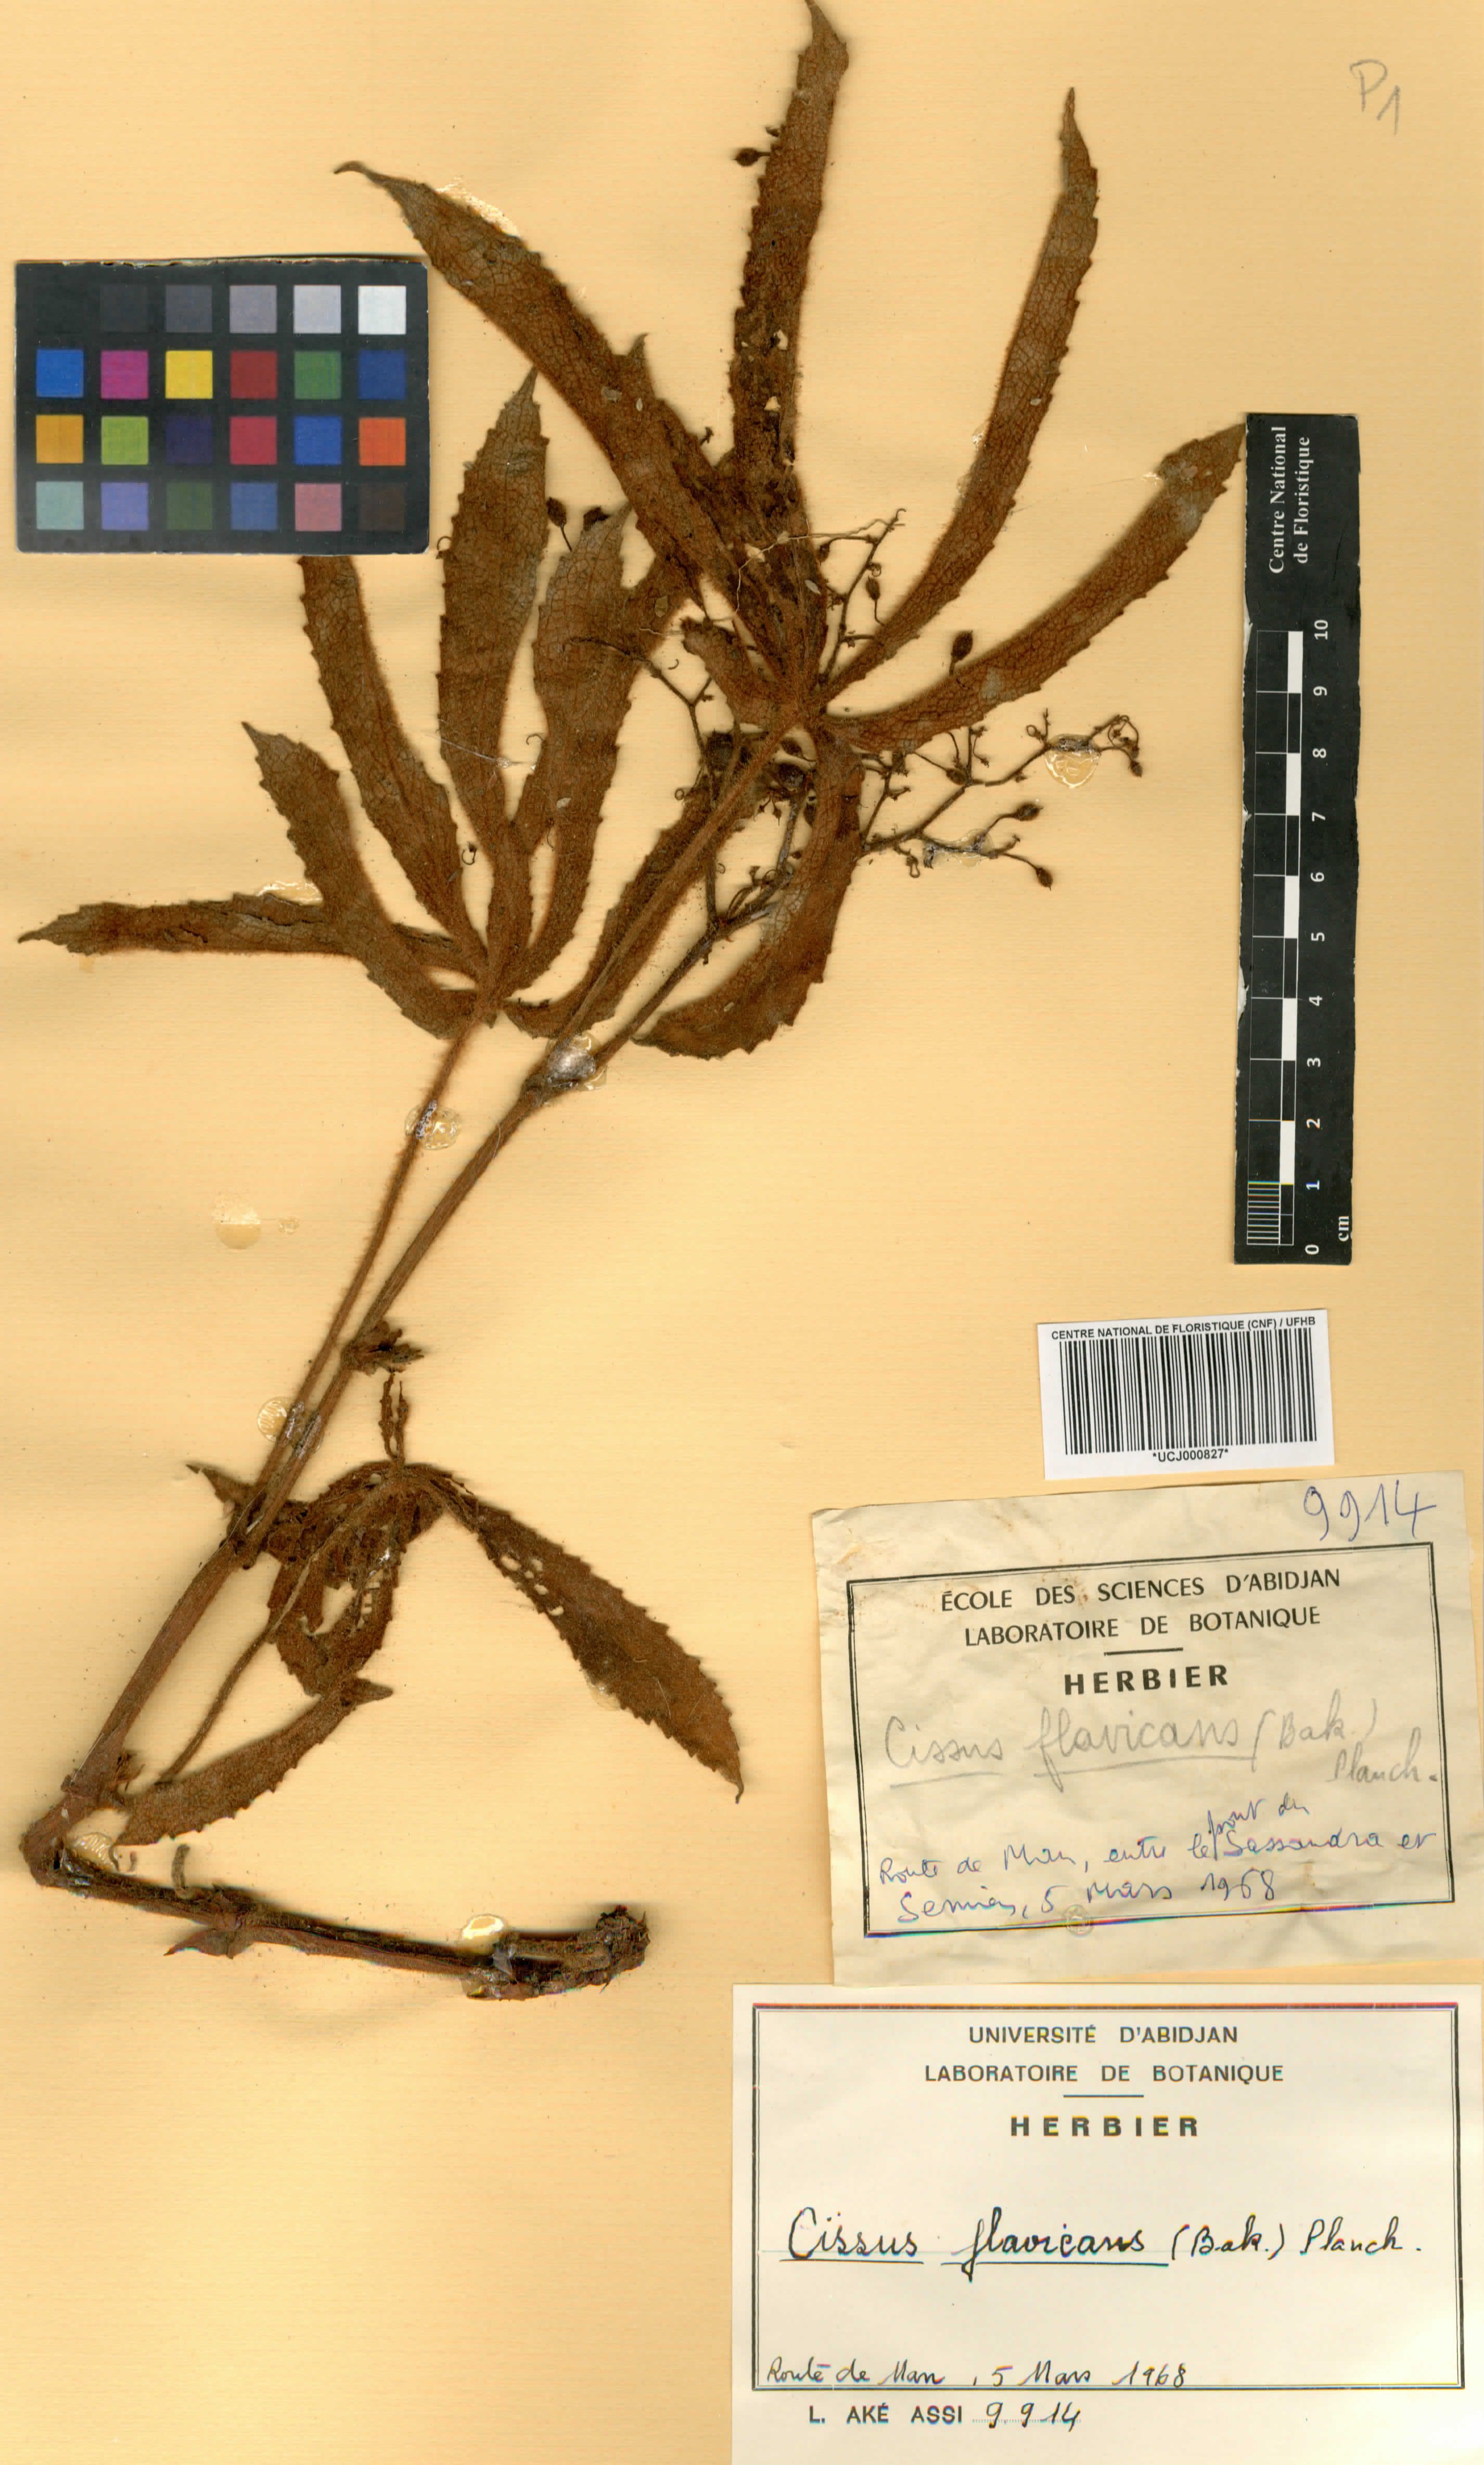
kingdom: Plantae
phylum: Tracheophyta
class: Magnoliopsida
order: Vitales
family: Vitaceae
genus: Cyphostemma
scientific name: Cyphostemma flavicans
